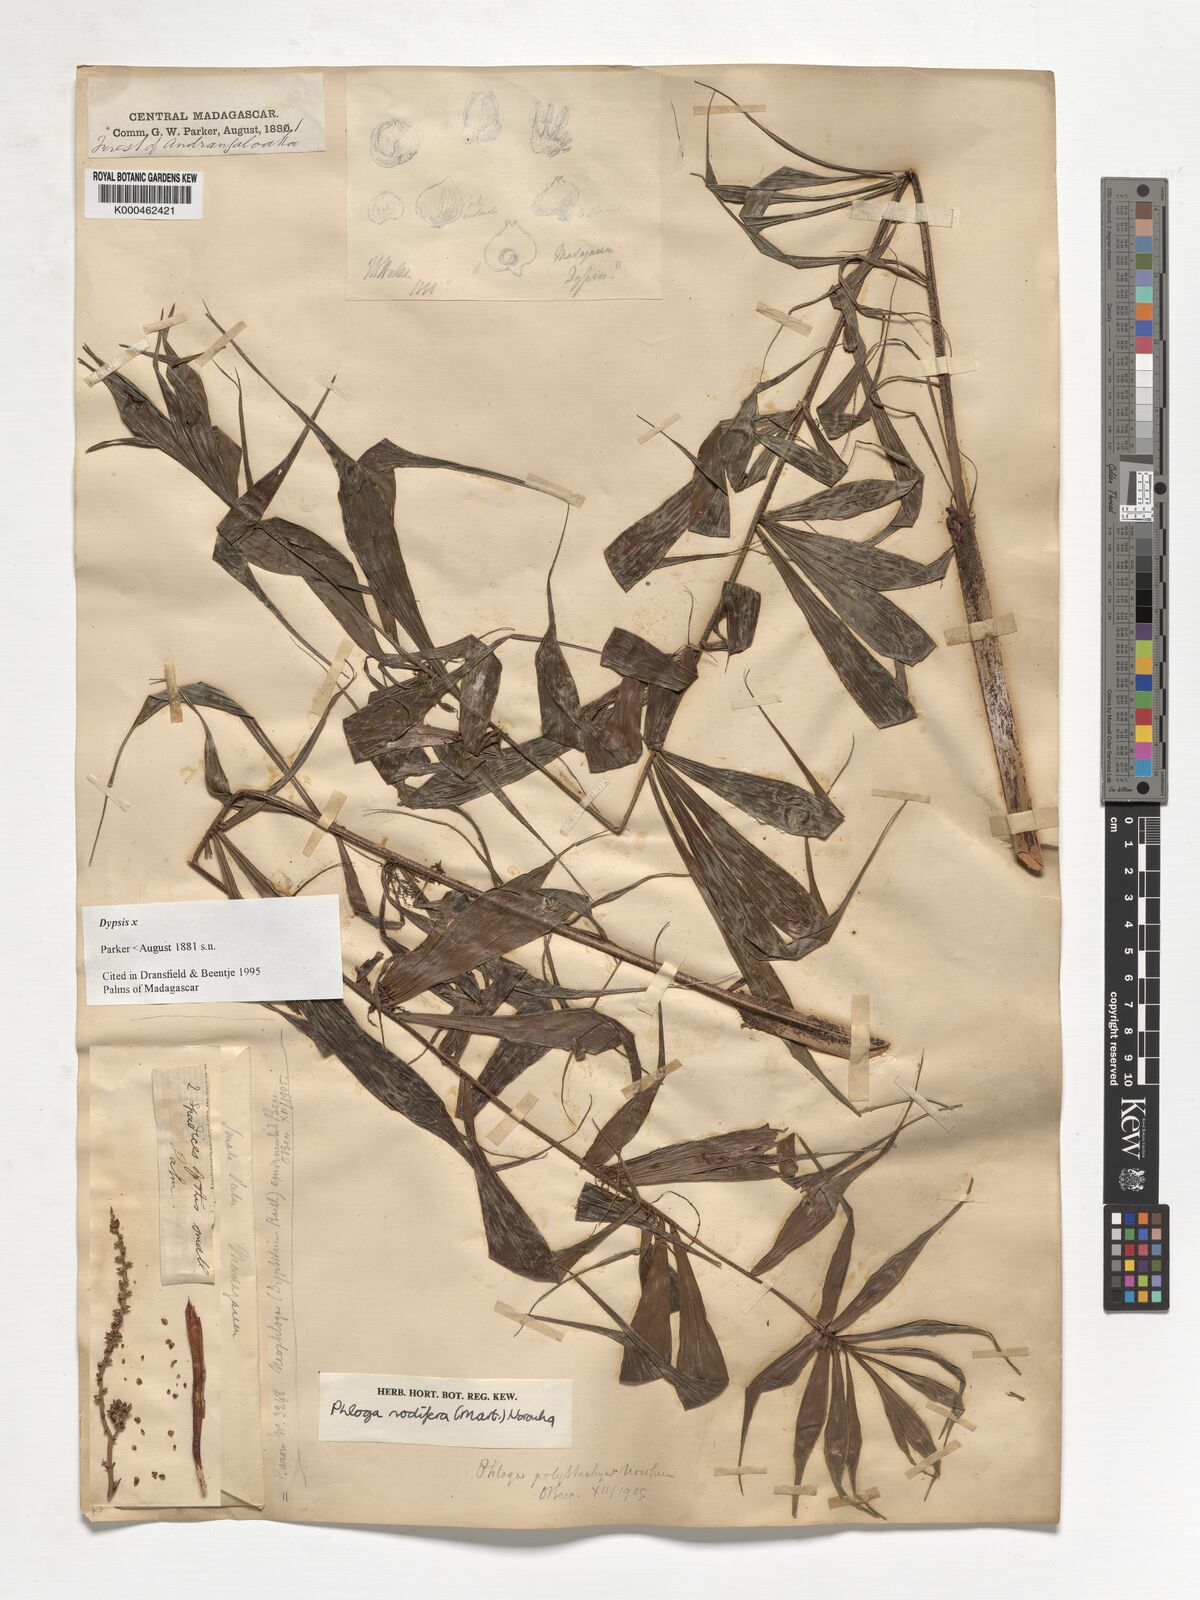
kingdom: Plantae
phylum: Tracheophyta
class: Liliopsida
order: Arecales
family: Arecaceae
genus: Dypsis
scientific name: Dypsis
